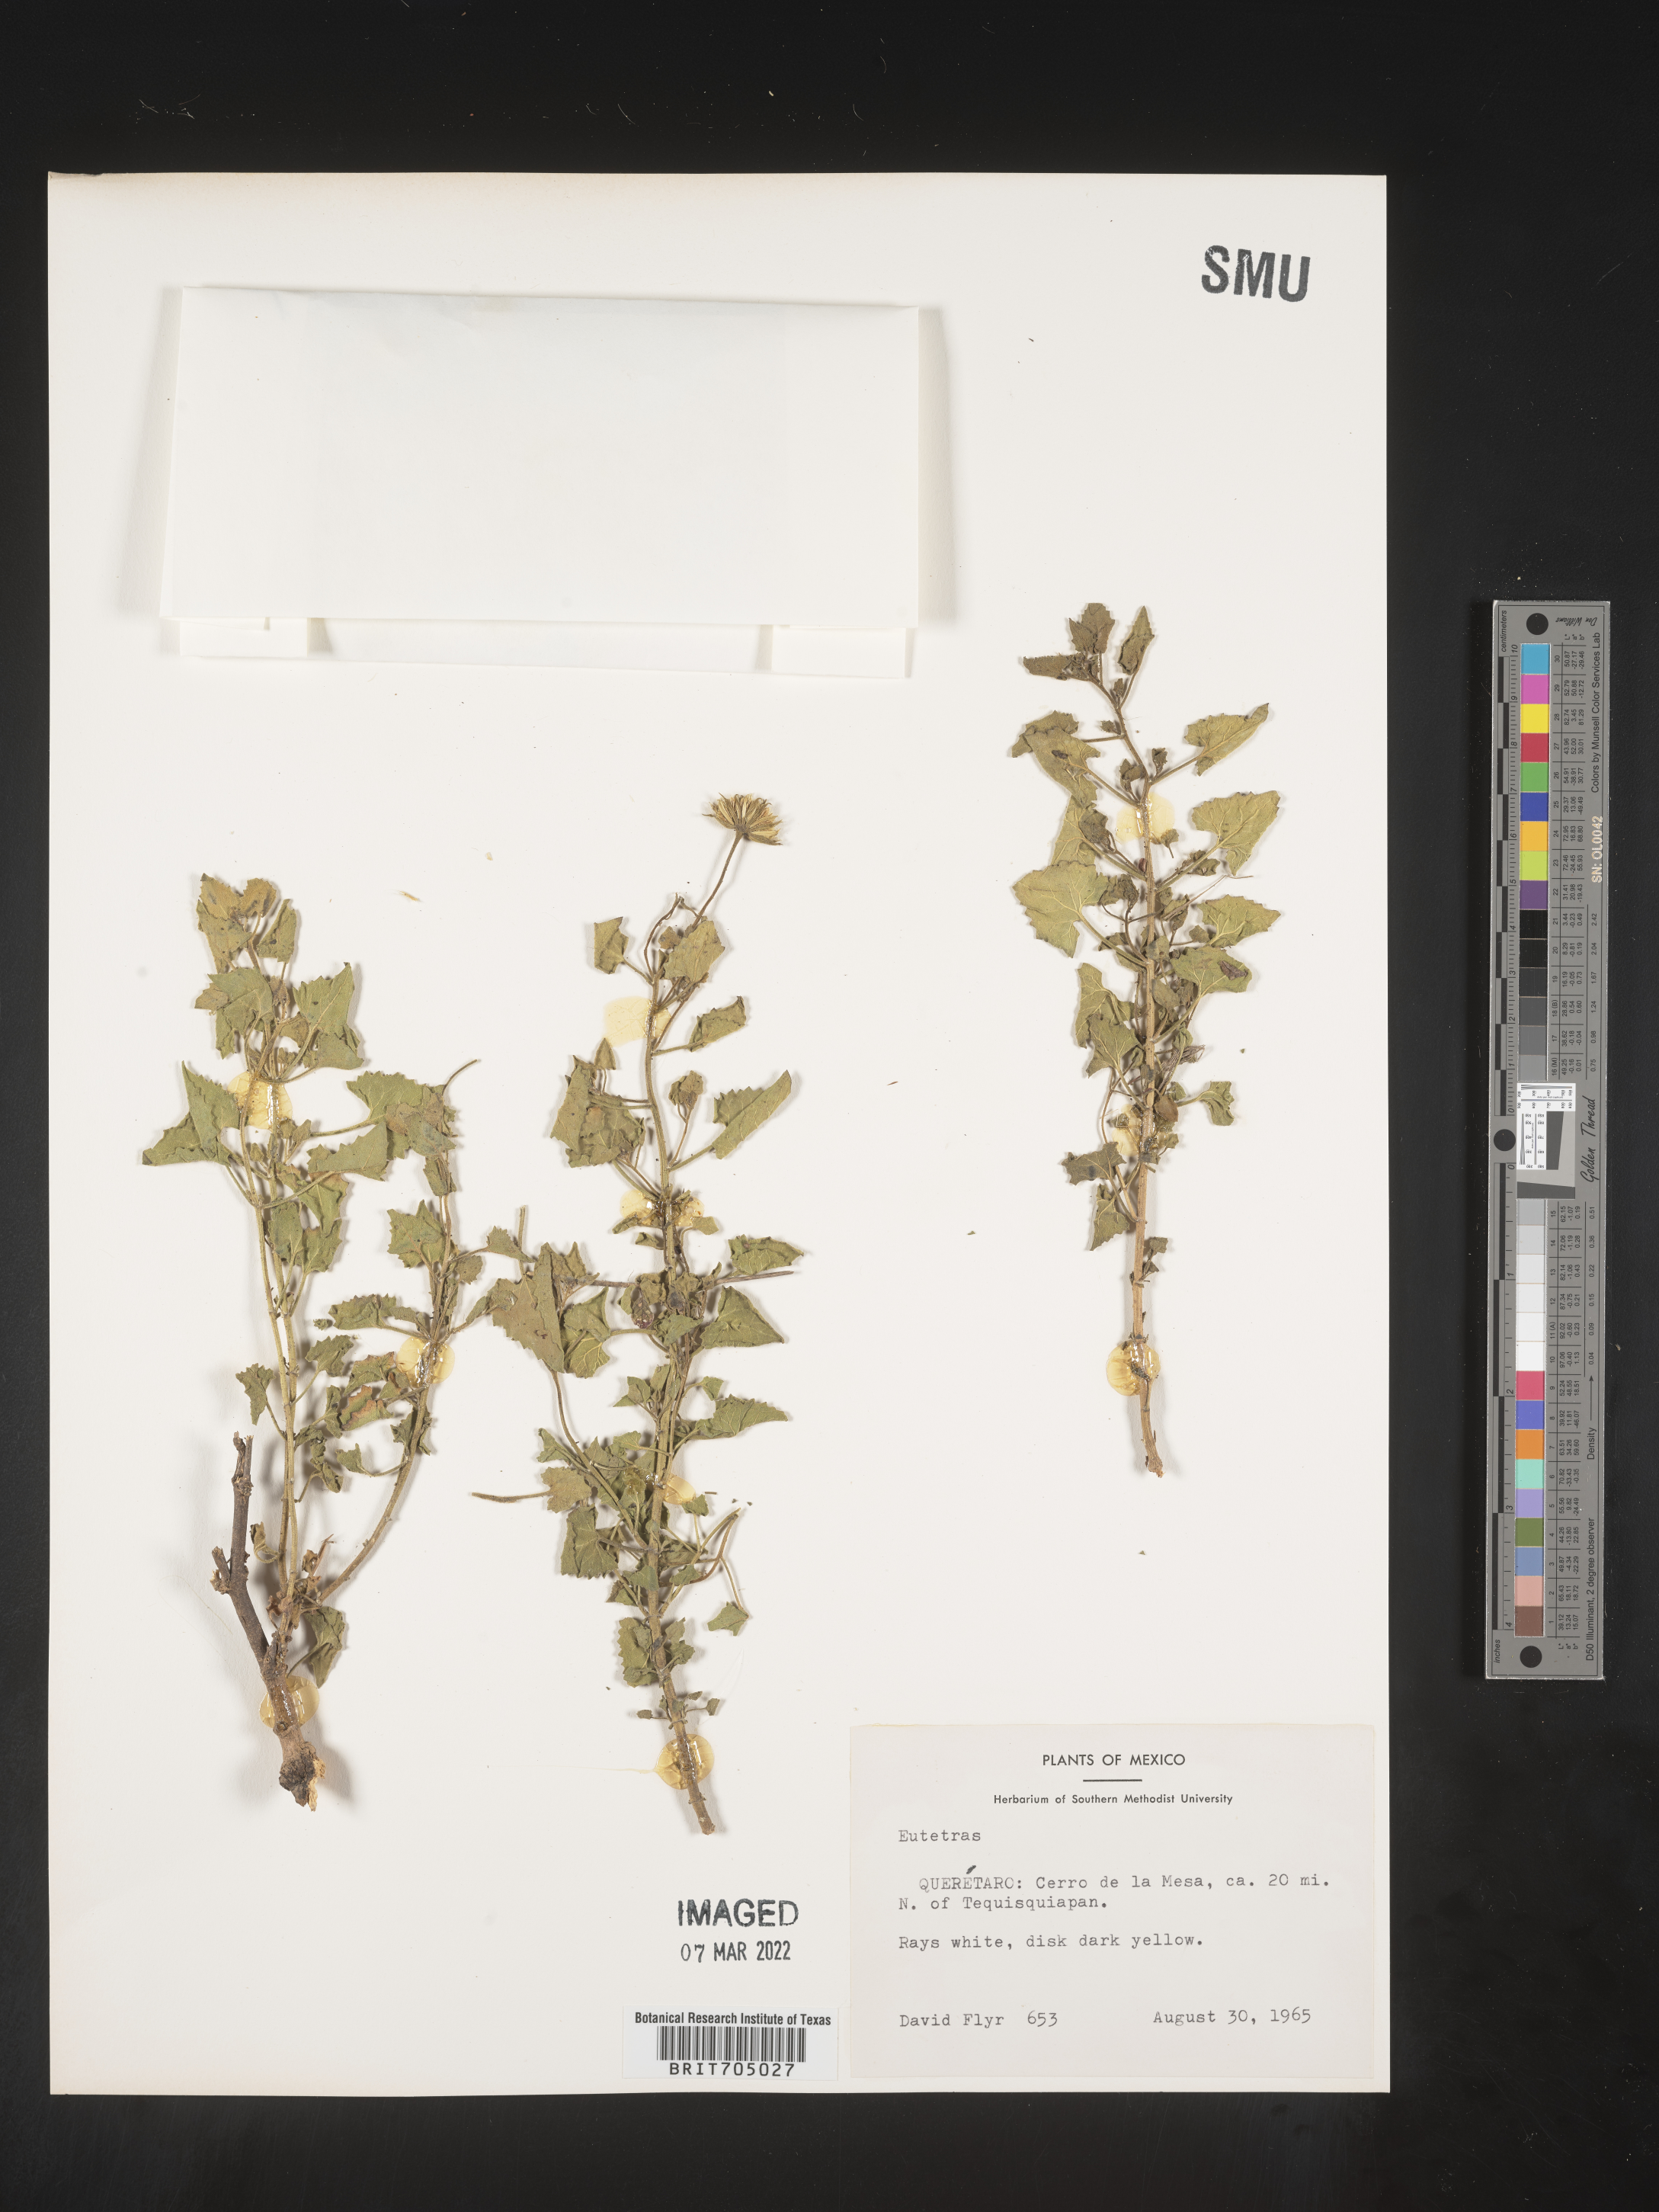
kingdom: Plantae
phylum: Tracheophyta
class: Magnoliopsida
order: Asterales
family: Asteraceae
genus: Eutetras
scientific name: Eutetras
